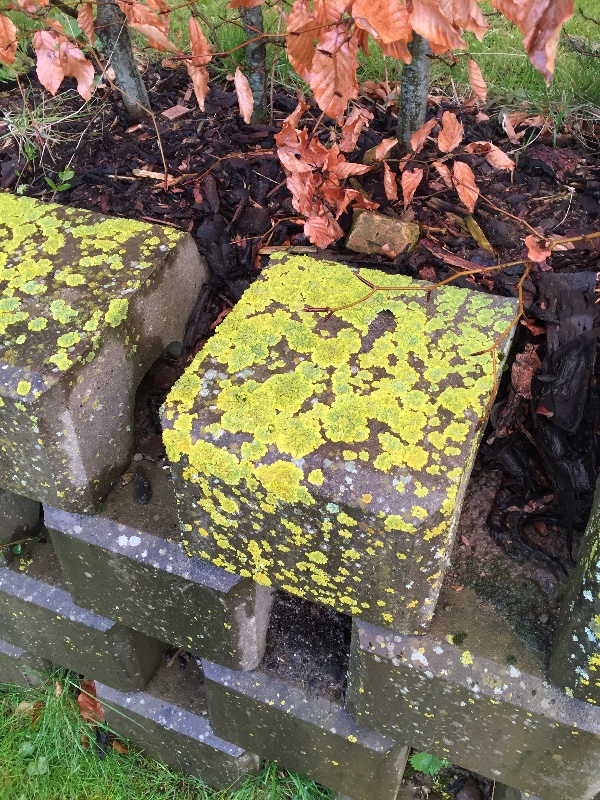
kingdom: Fungi
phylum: Ascomycota
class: Lecanoromycetes
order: Teloschistales
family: Teloschistaceae
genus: Xanthoria
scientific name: Xanthoria parietina
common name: almindelig væggelav
